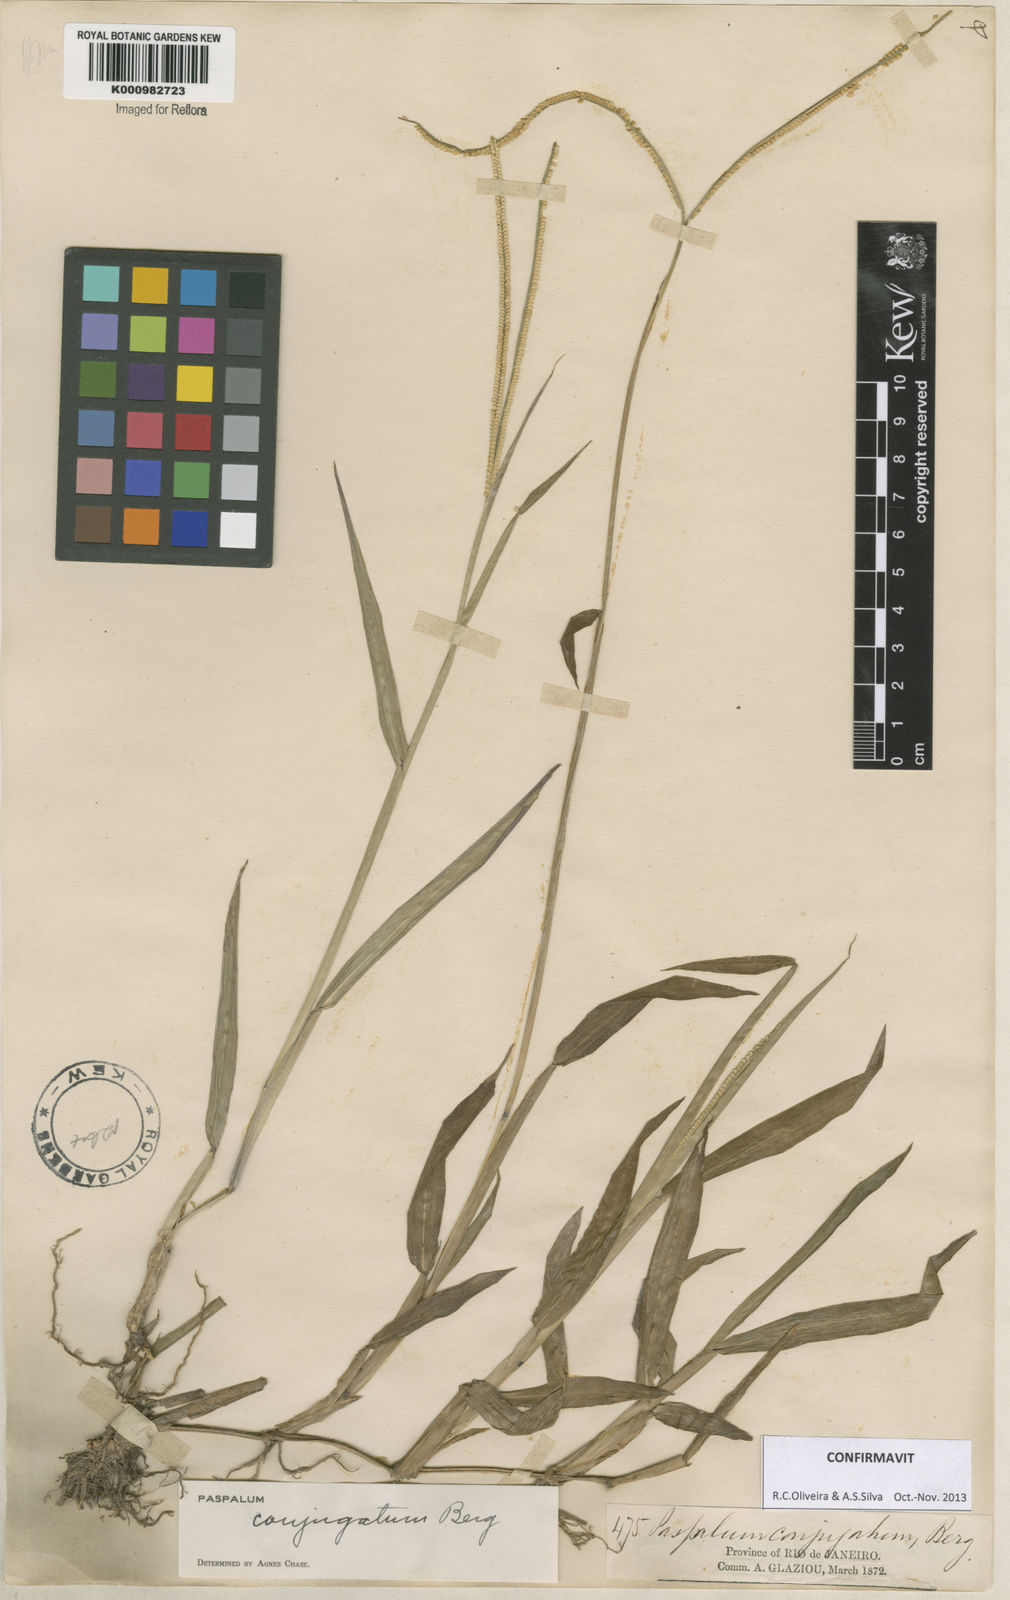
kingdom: Plantae
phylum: Tracheophyta
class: Liliopsida
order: Poales
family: Poaceae
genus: Paspalum
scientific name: Paspalum conjugatum
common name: Hilograss
